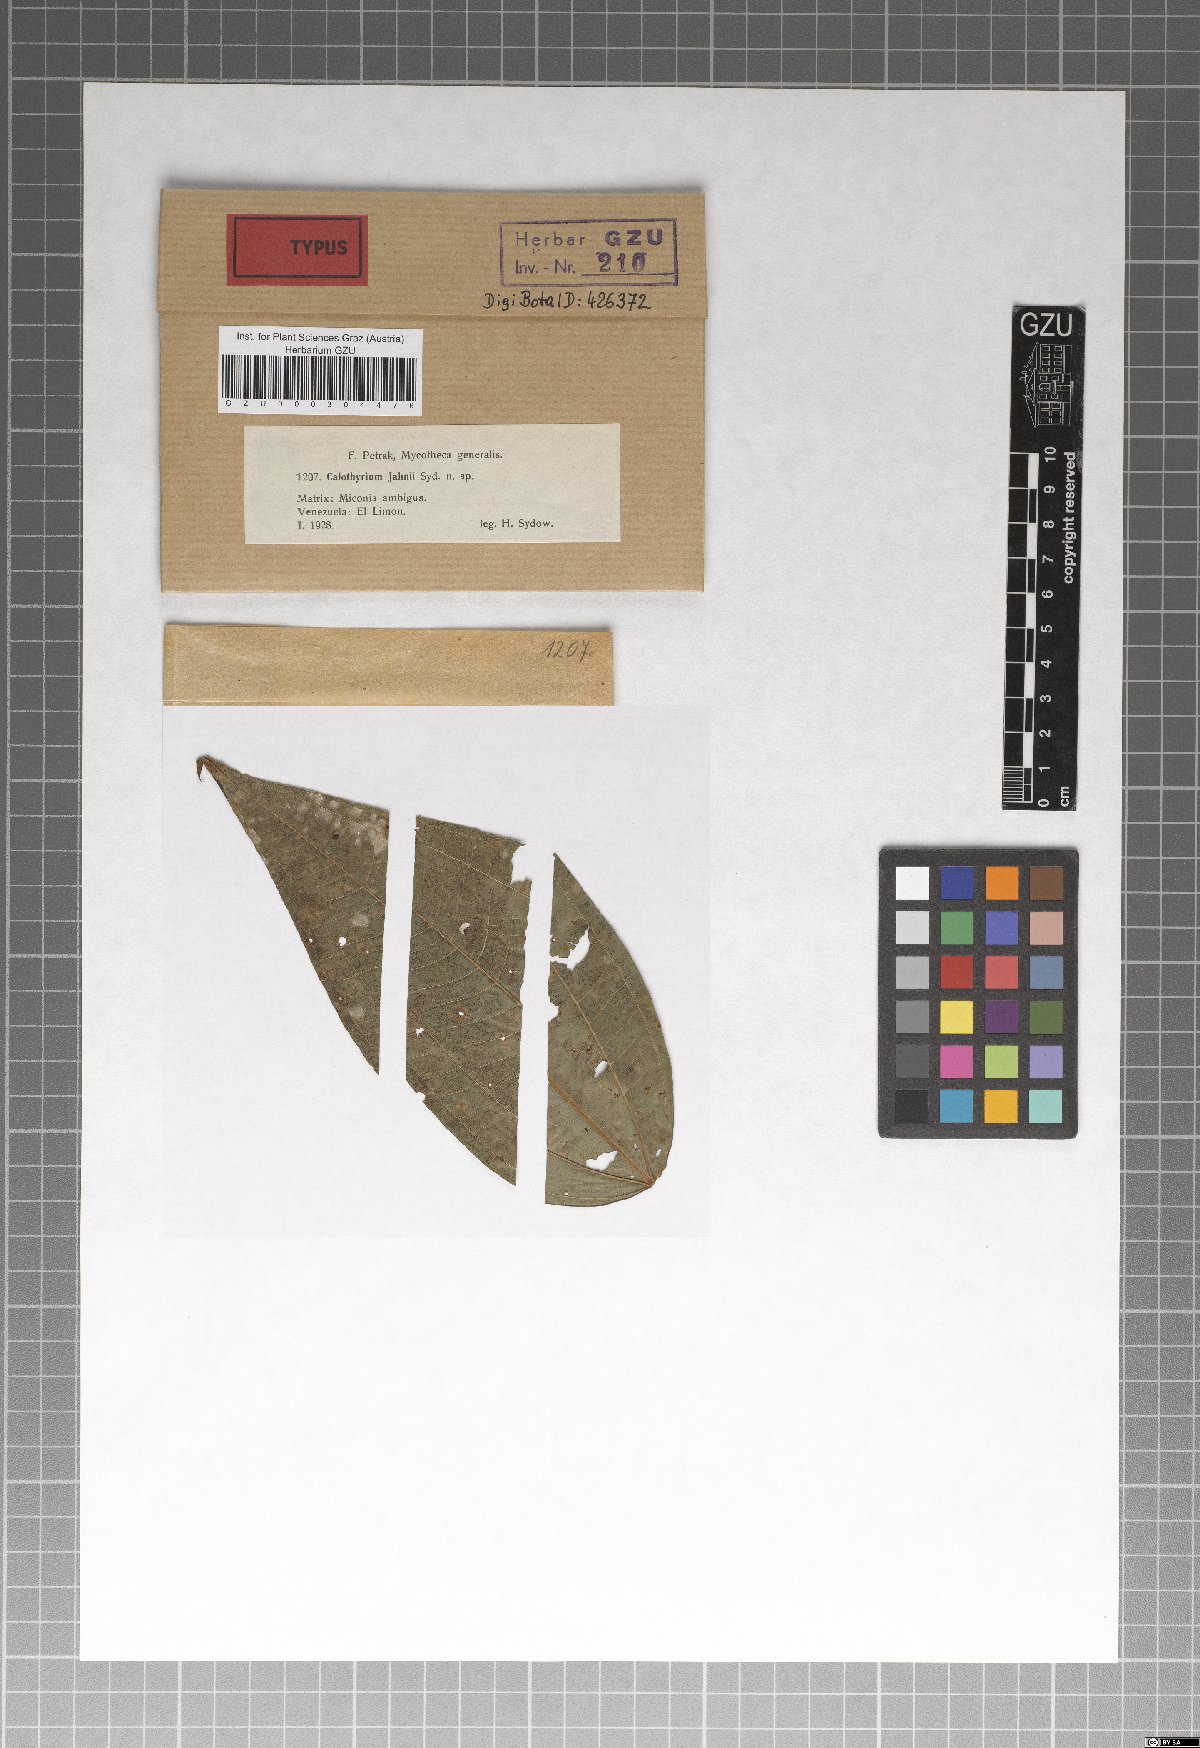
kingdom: Fungi
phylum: Ascomycota
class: Dothideomycetes
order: Microthyriales
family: Microthyriaceae
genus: Calothyrium
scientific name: Calothyrium jahnii
